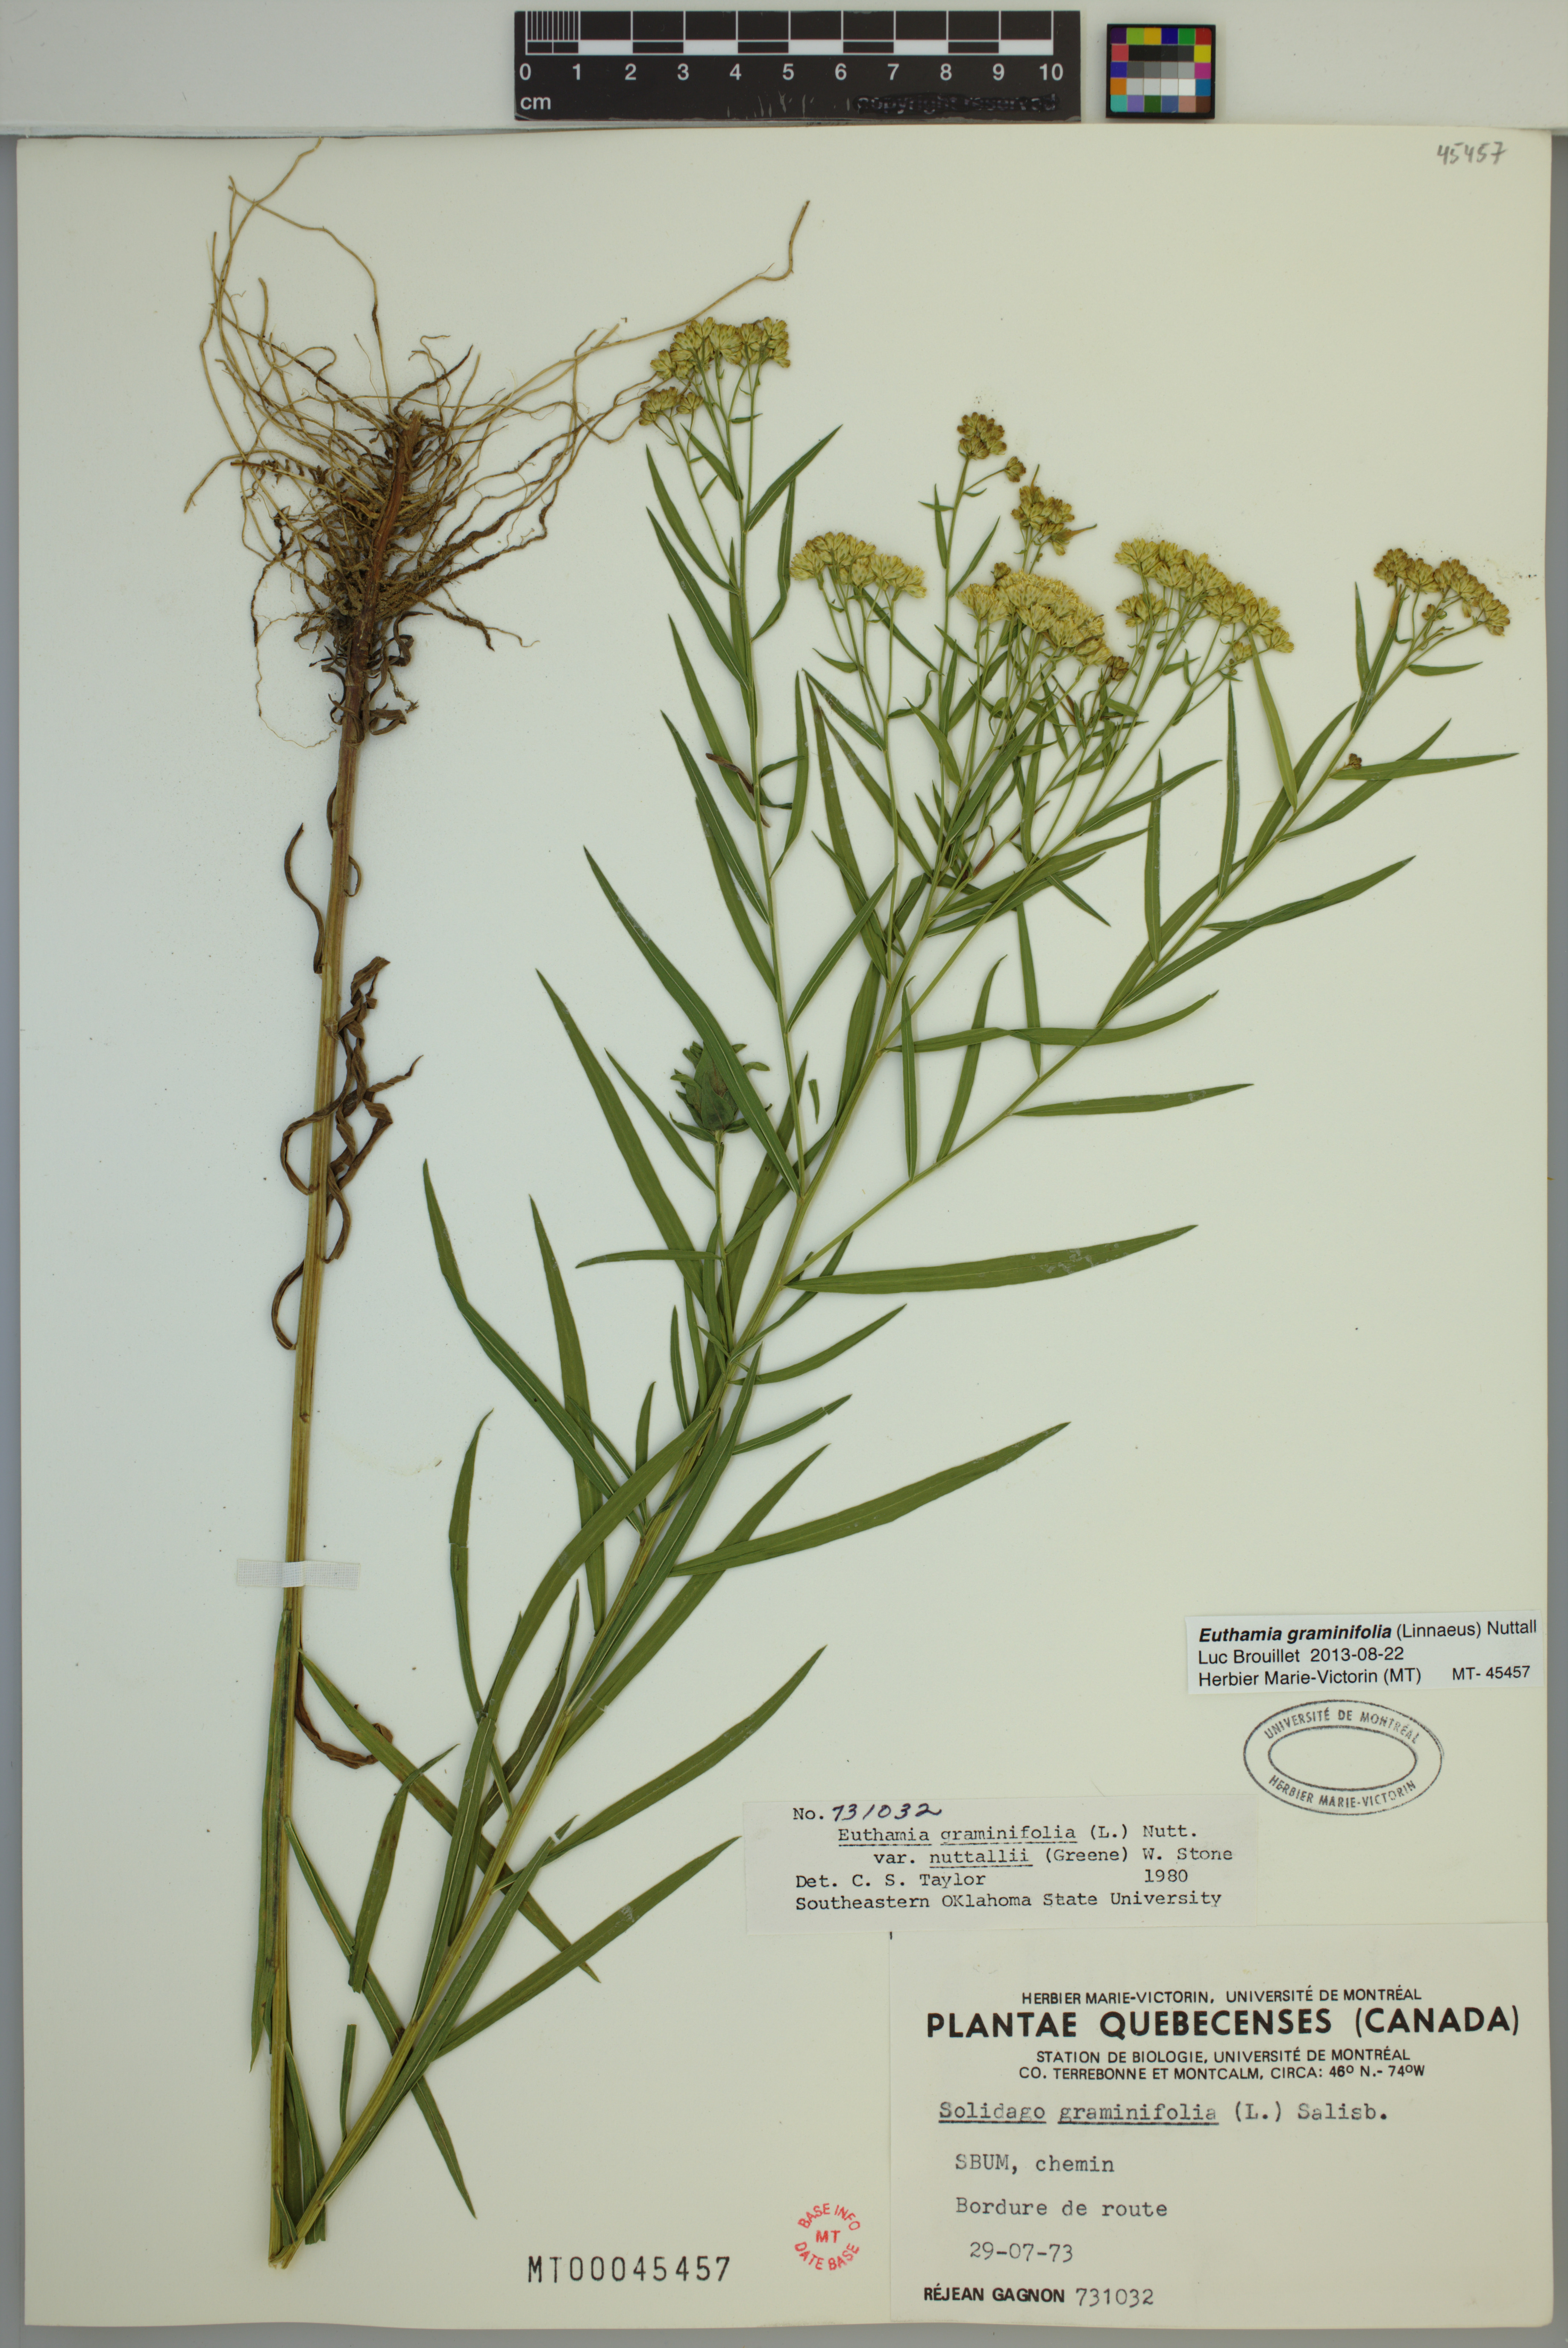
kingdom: Plantae
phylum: Tracheophyta
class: Magnoliopsida
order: Asterales
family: Asteraceae
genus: Euthamia
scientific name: Euthamia graminifolia
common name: Common goldentop
